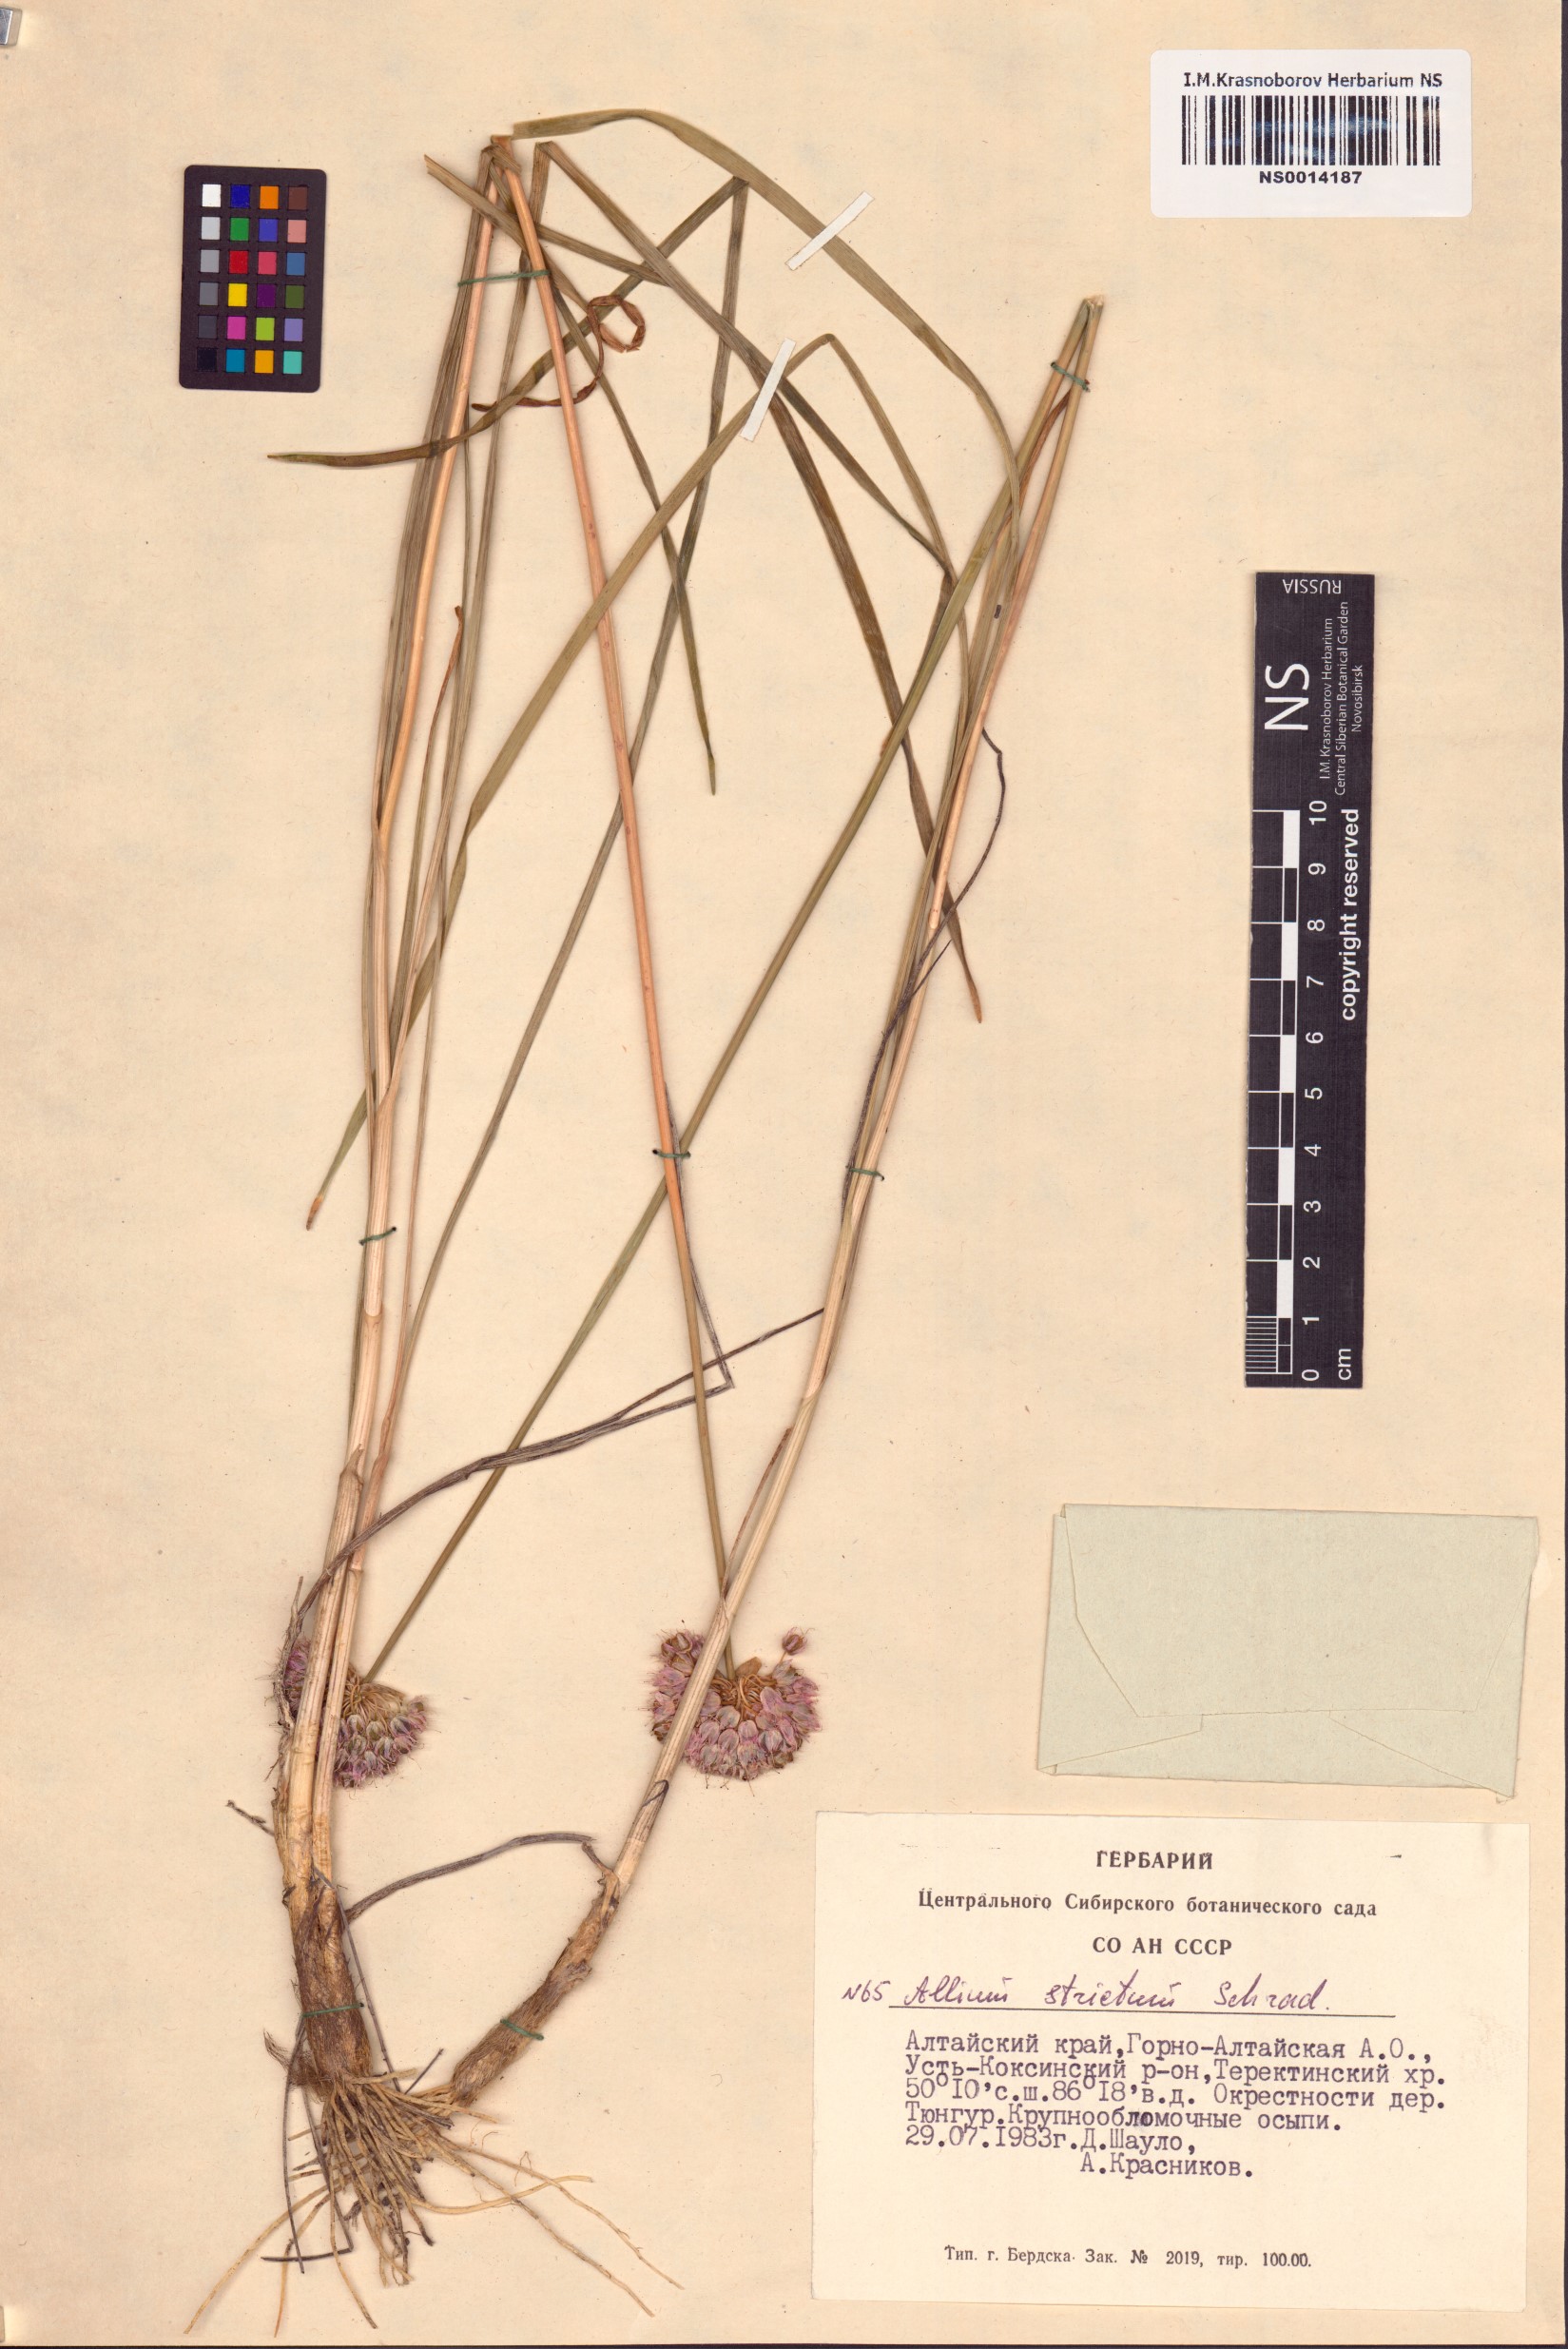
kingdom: Plantae
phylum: Tracheophyta
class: Liliopsida
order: Asparagales
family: Amaryllidaceae
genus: Allium
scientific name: Allium strictum
